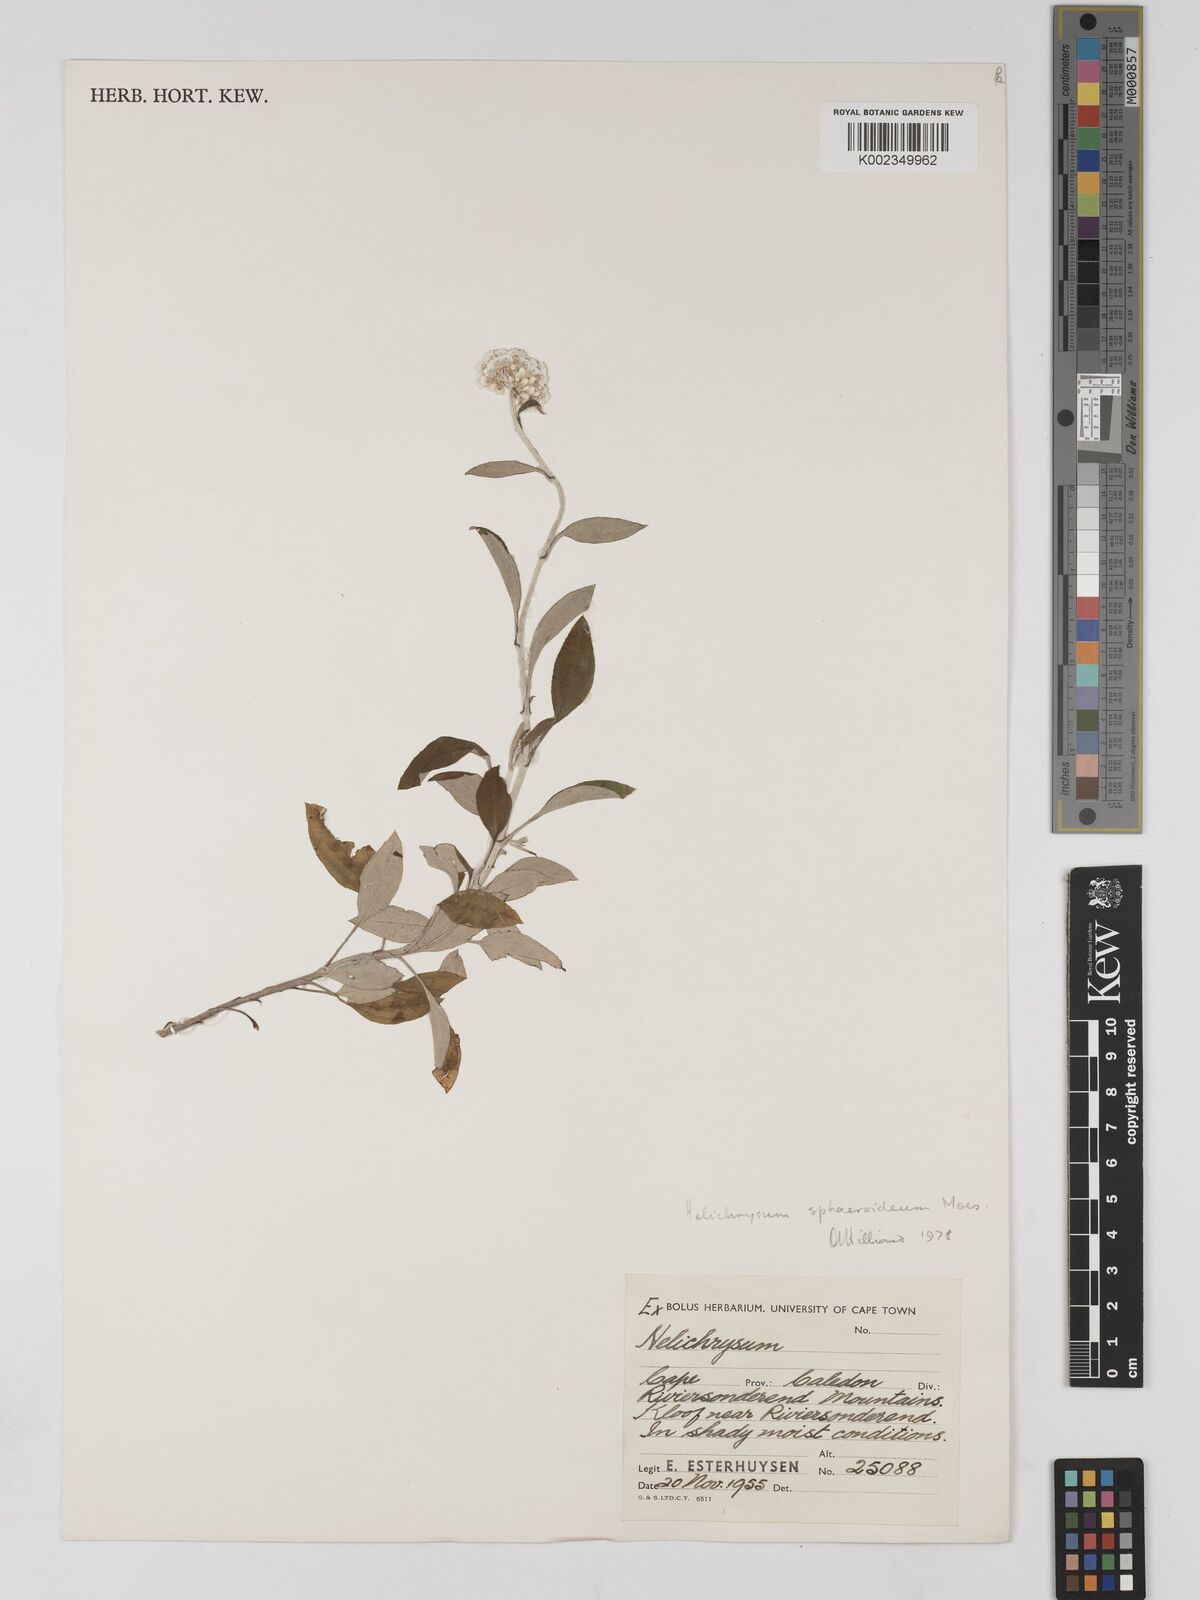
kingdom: Plantae
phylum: Tracheophyta
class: Magnoliopsida
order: Asterales
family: Asteraceae
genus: Helichrysum
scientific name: Helichrysum sphaeroideum
